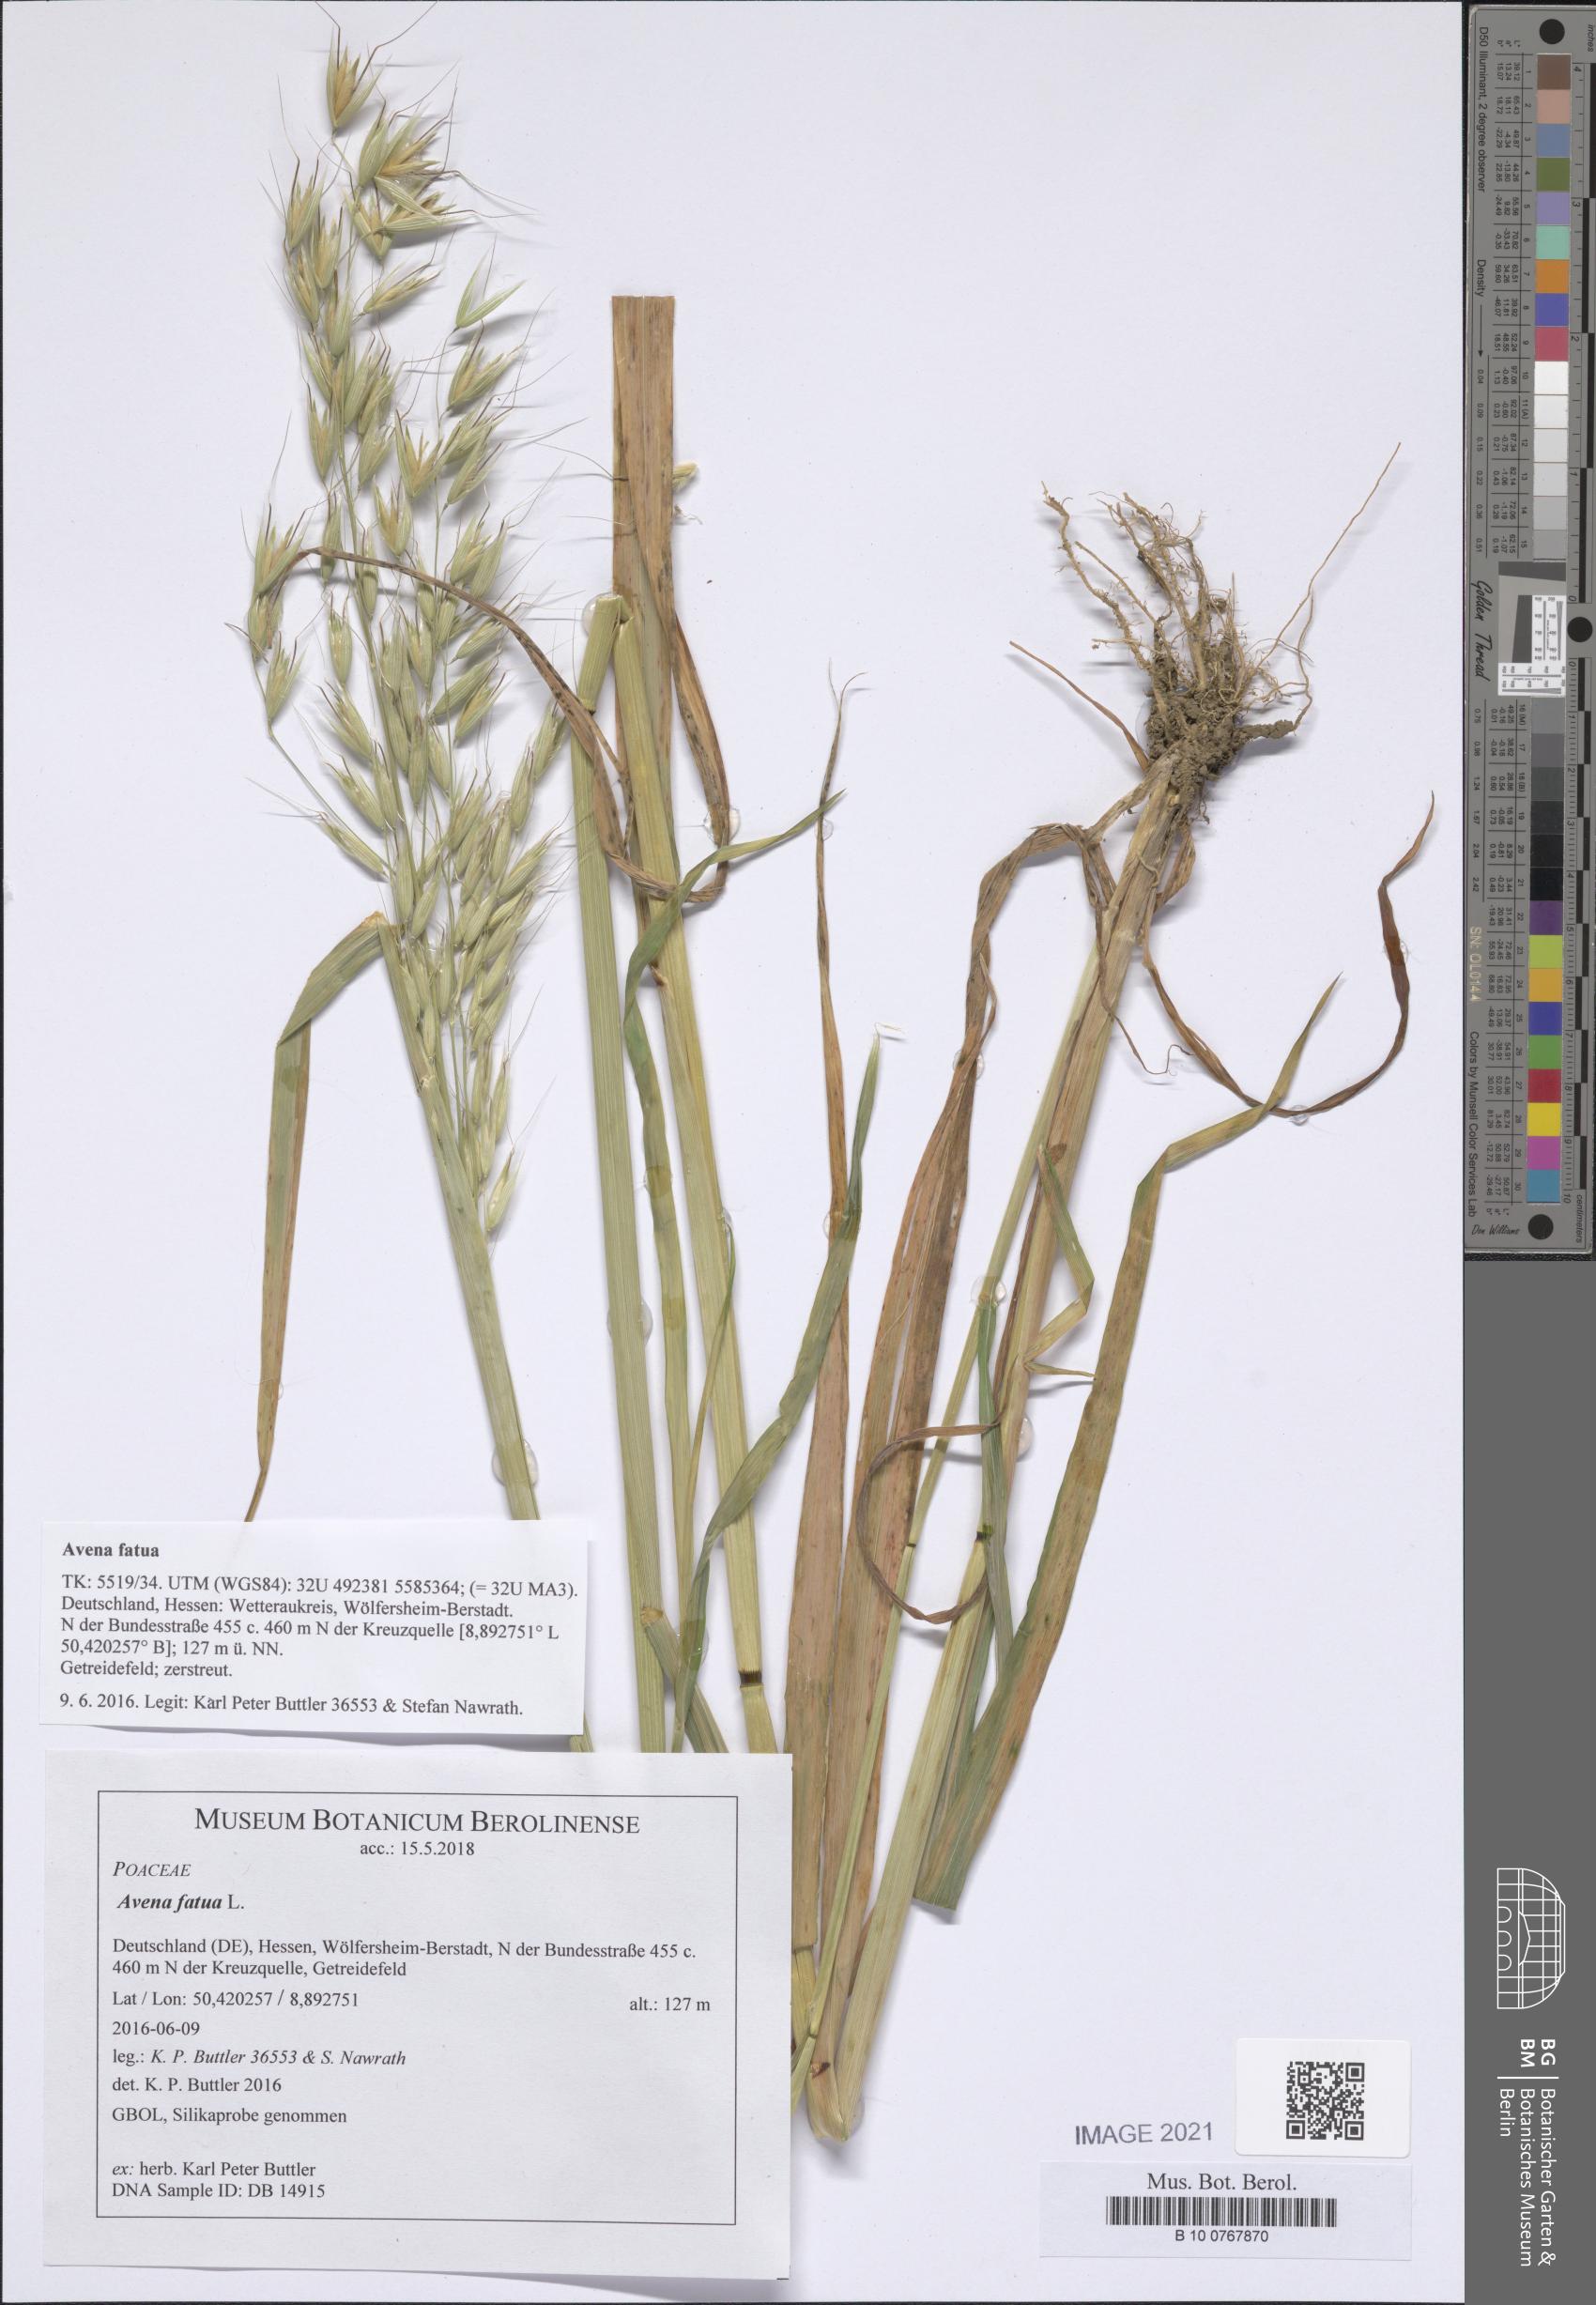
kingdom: Plantae
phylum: Tracheophyta
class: Liliopsida
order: Poales
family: Poaceae
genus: Avena
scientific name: Avena fatua
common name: Wild oat
